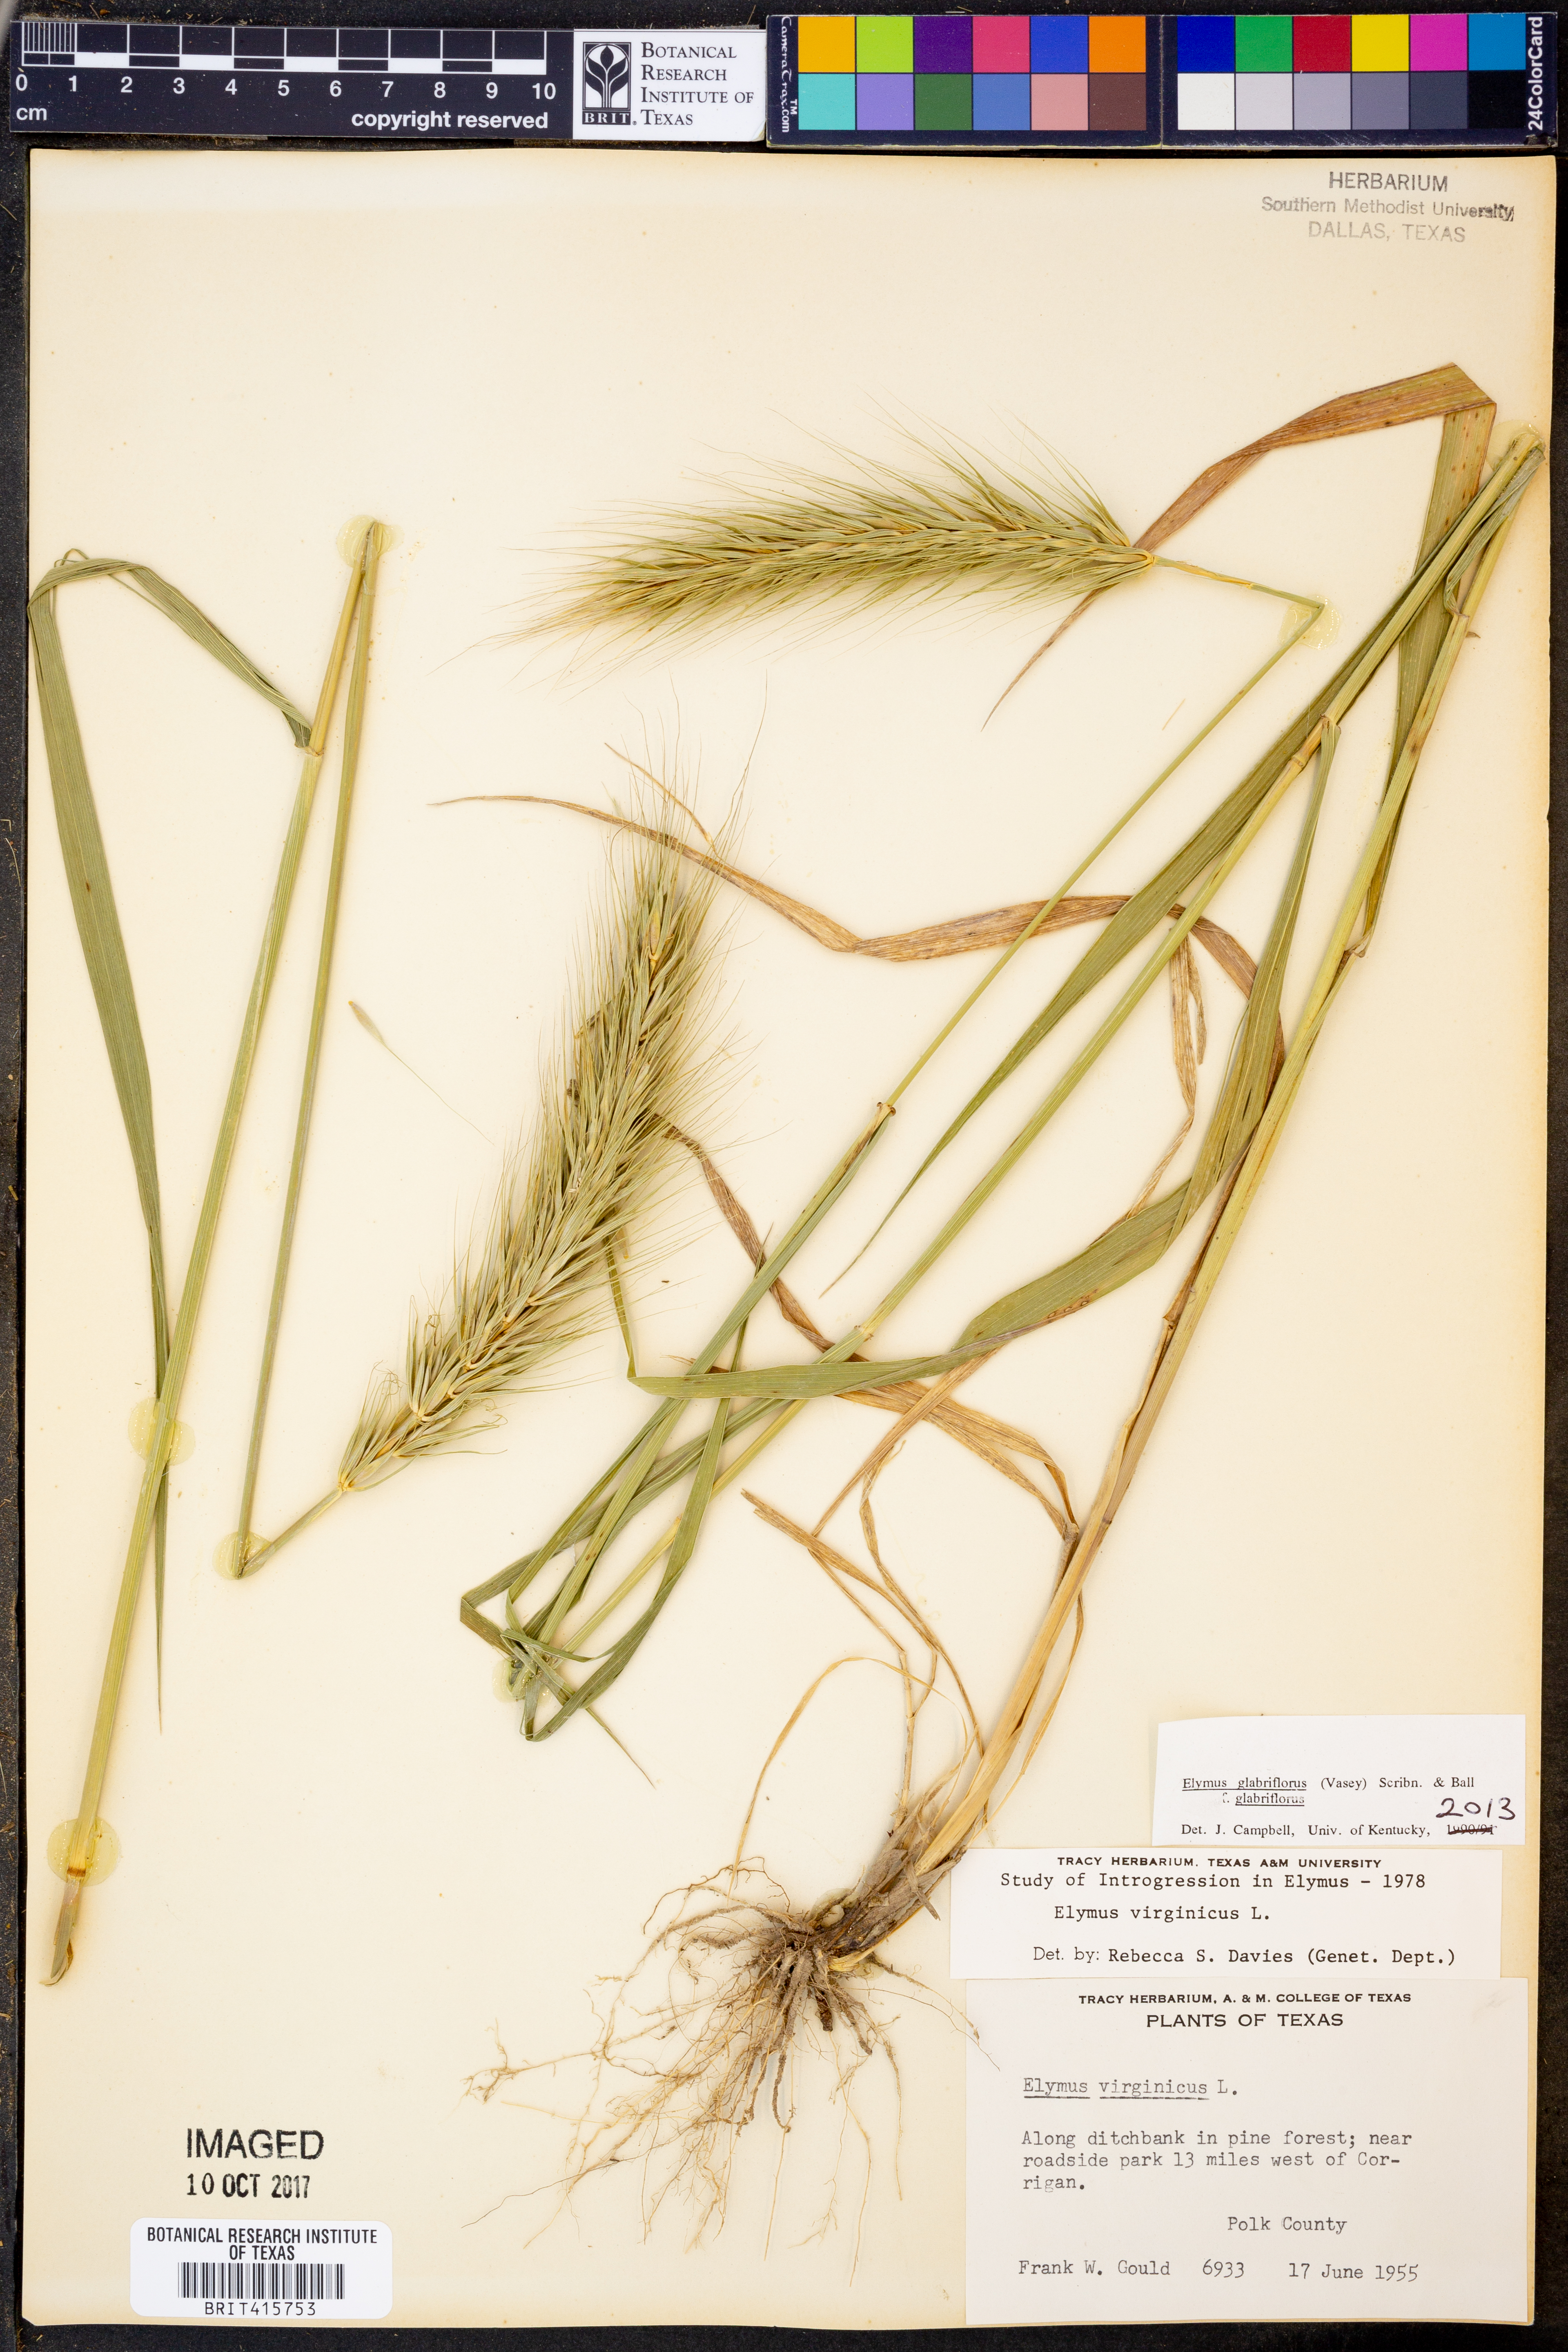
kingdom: Plantae
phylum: Tracheophyta
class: Liliopsida
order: Poales
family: Poaceae
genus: Elymus
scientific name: Elymus virginicus
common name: Common eastern wildrye
